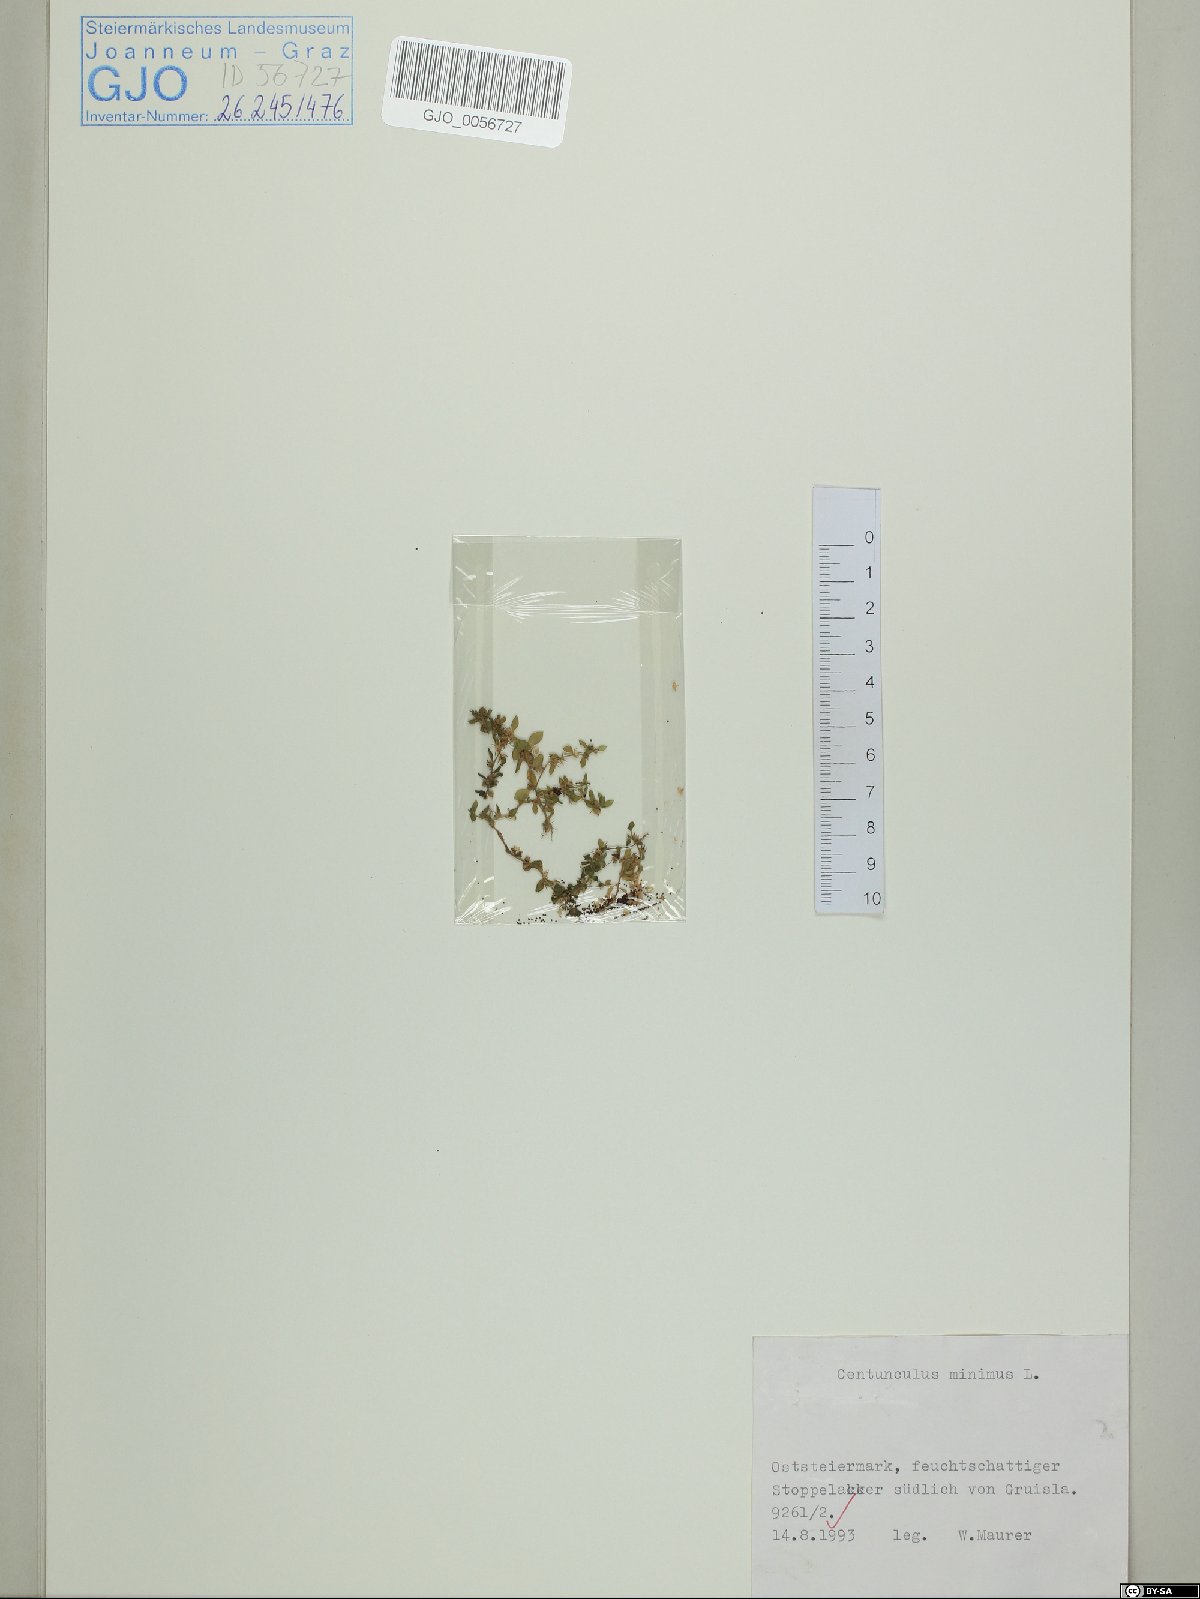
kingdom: Plantae
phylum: Tracheophyta
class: Magnoliopsida
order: Ericales
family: Primulaceae
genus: Lysimachia
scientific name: Lysimachia minima
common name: Chaffweed
